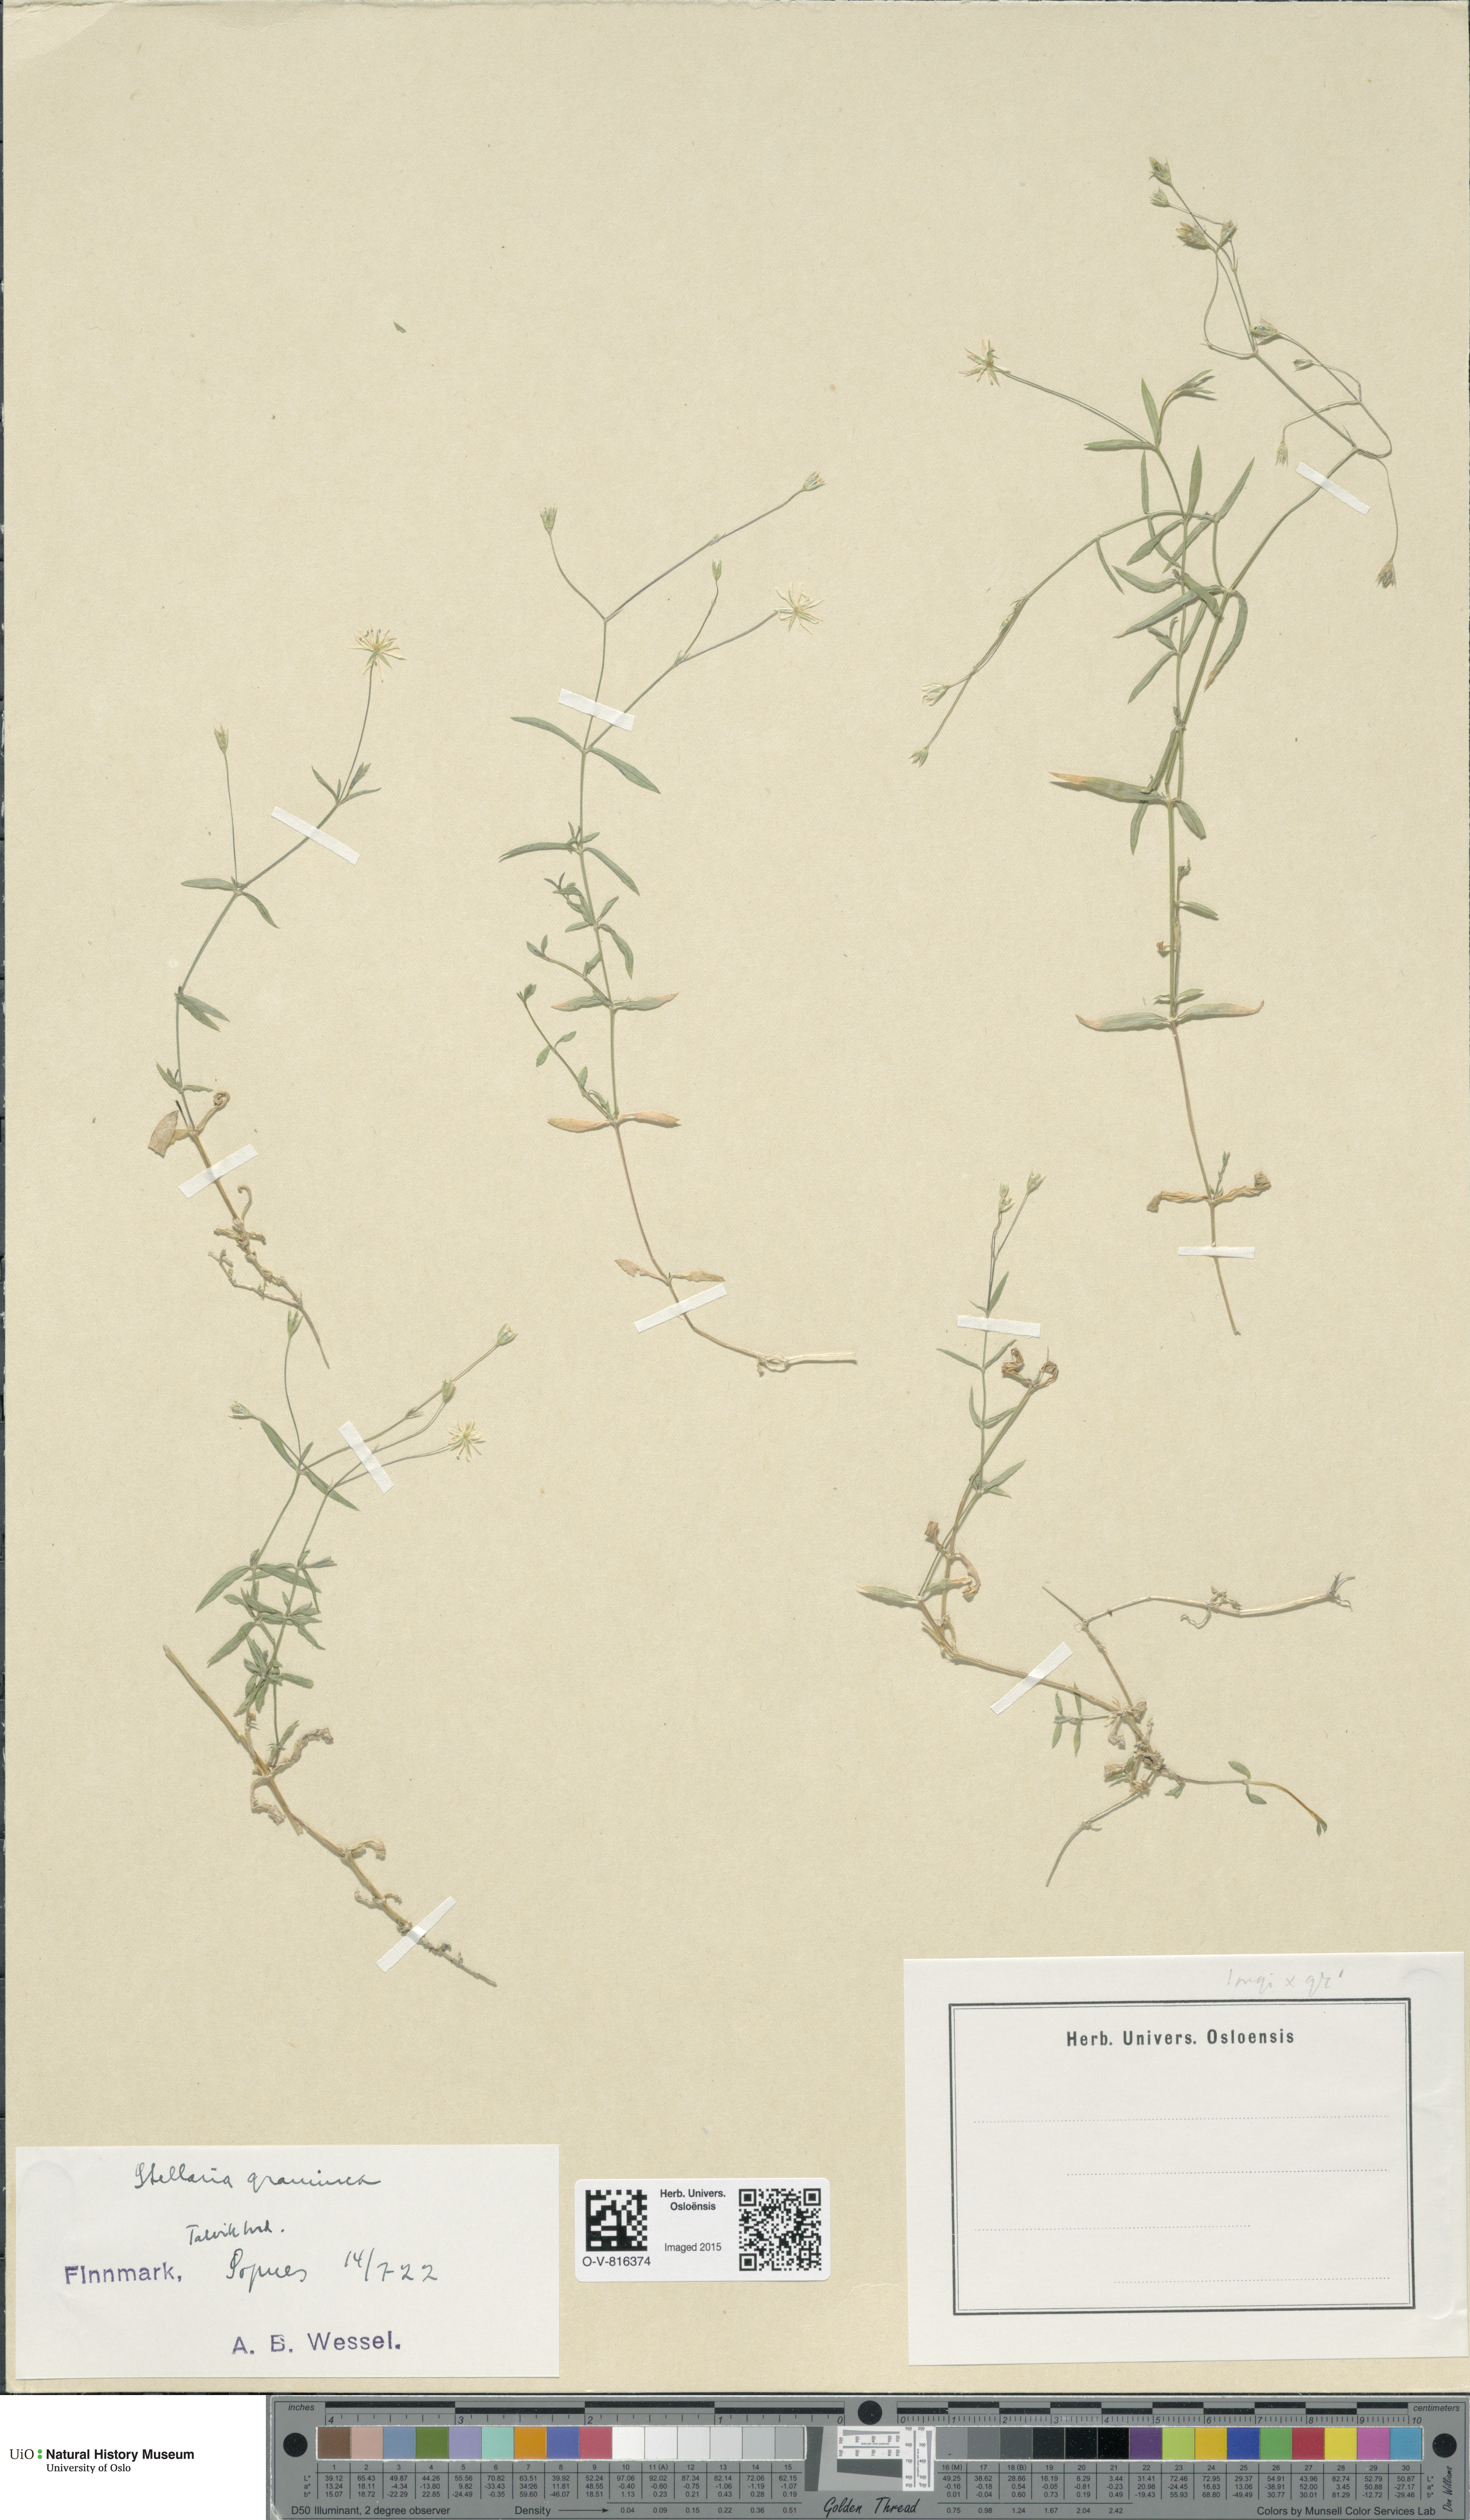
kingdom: Plantae
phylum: Tracheophyta
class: Magnoliopsida
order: Caryophyllales
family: Caryophyllaceae
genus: Stellaria
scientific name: Stellaria graminea
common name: Grass-like starwort
